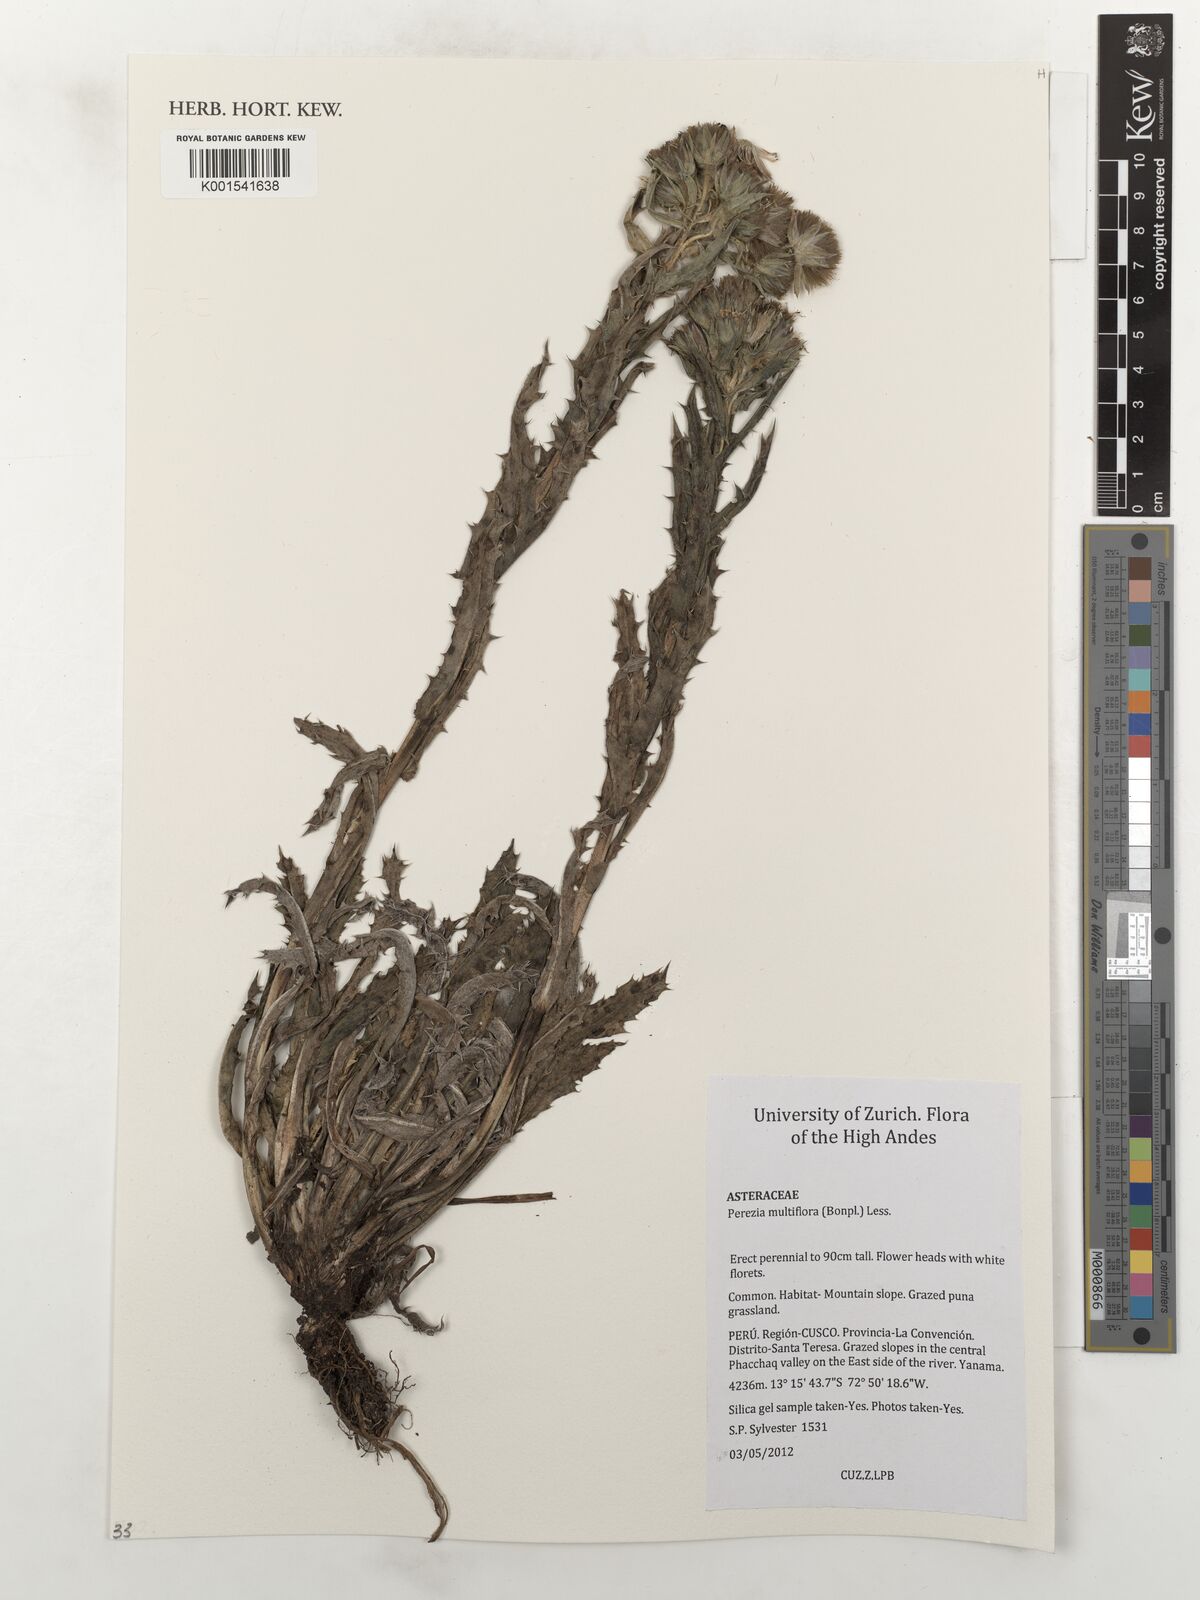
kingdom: Plantae
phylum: Tracheophyta
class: Magnoliopsida
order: Asterales
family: Asteraceae
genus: Perezia
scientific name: Perezia multiflora
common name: Perezia
